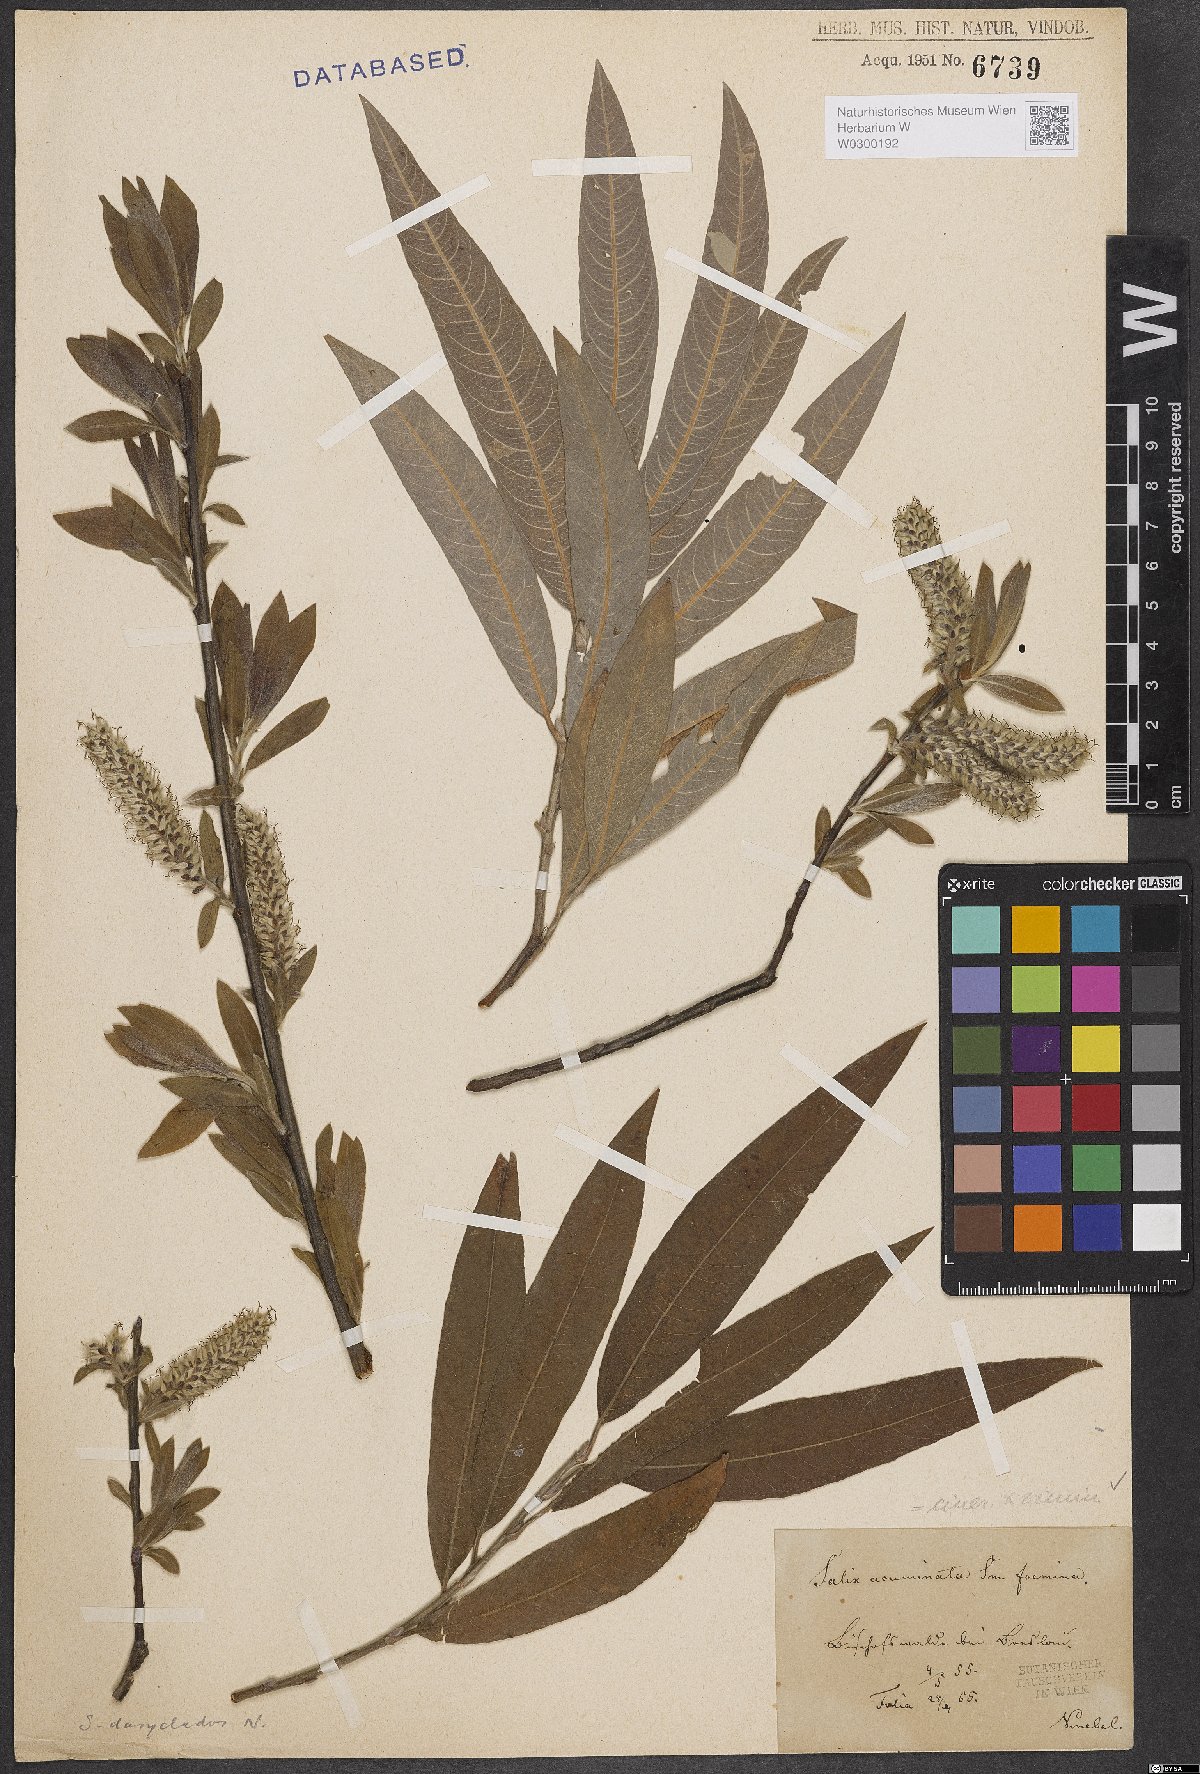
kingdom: Plantae
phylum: Tracheophyta
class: Magnoliopsida
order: Malpighiales
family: Salicaceae
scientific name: Salicaceae
